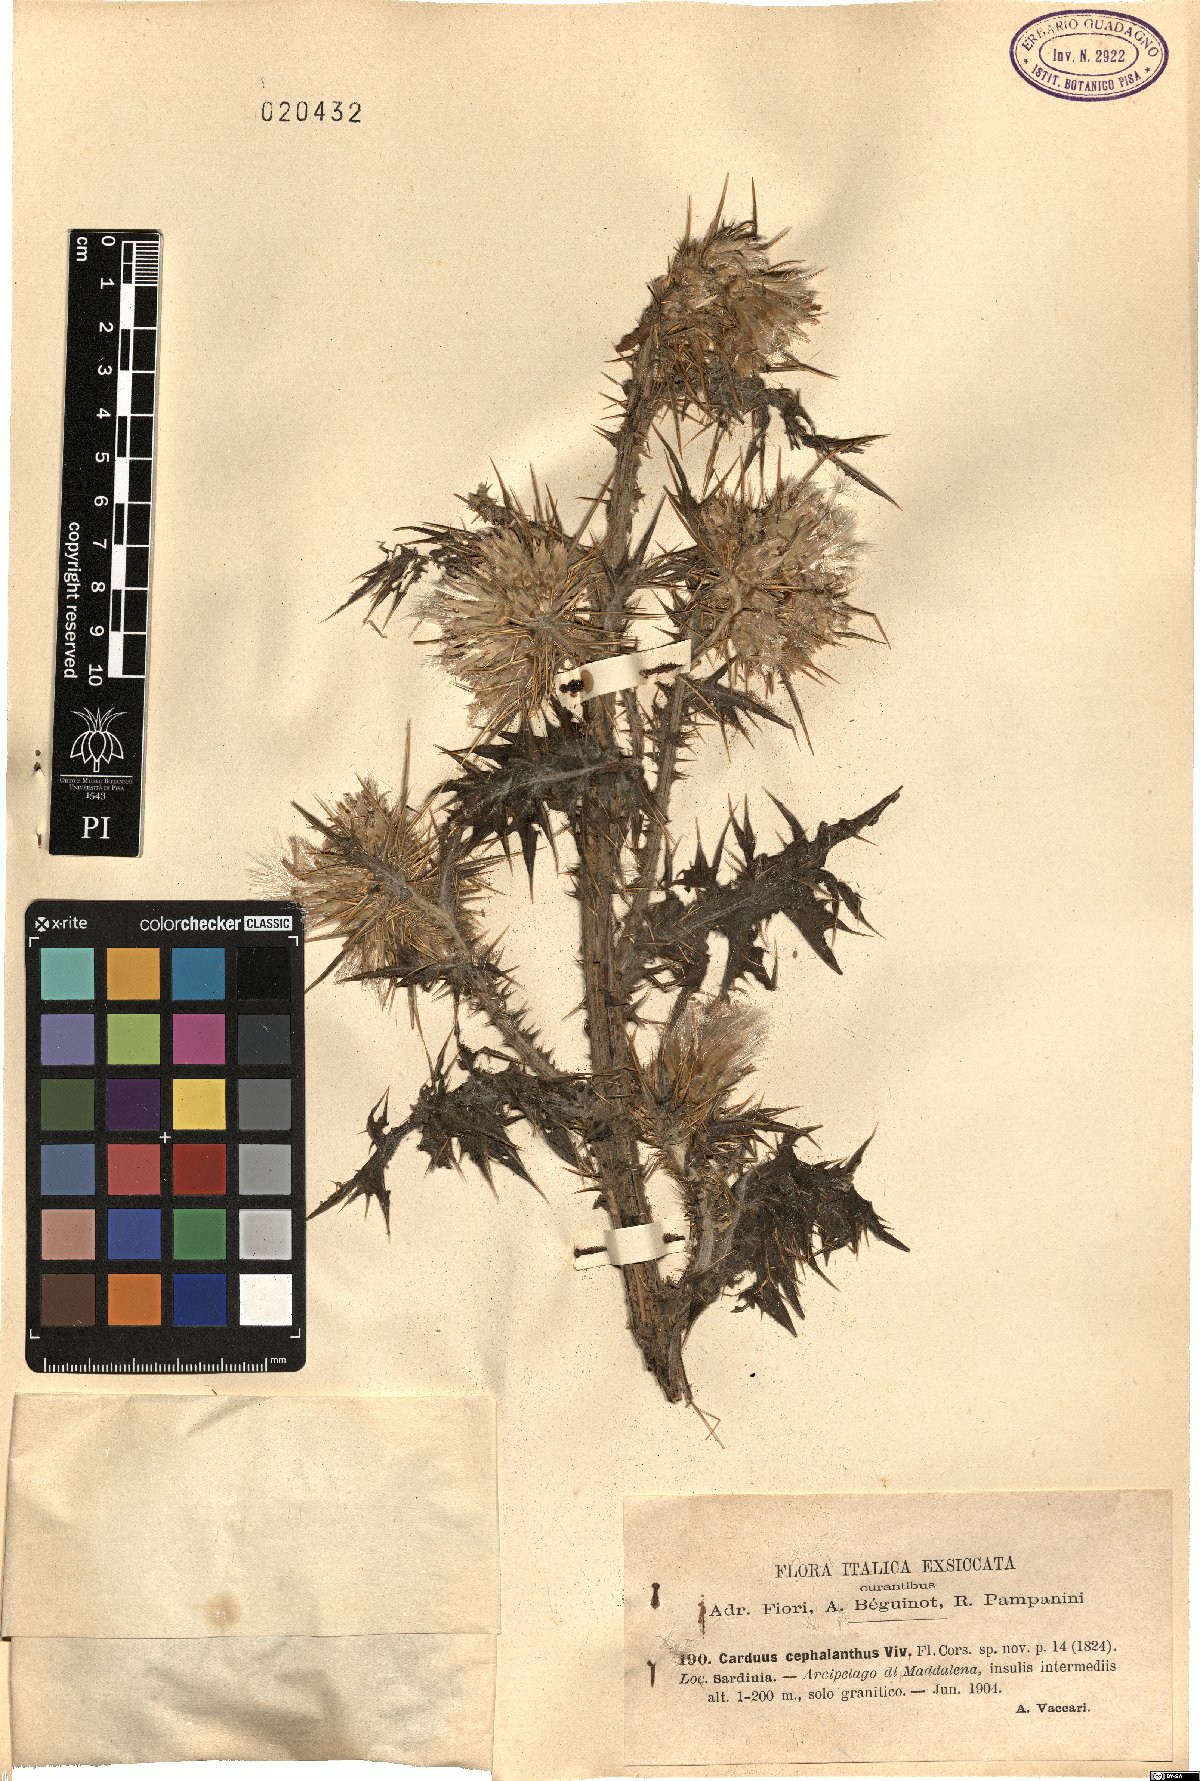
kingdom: Plantae
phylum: Tracheophyta
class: Magnoliopsida
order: Asterales
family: Asteraceae
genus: Carduus
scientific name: Carduus cephalanthus
